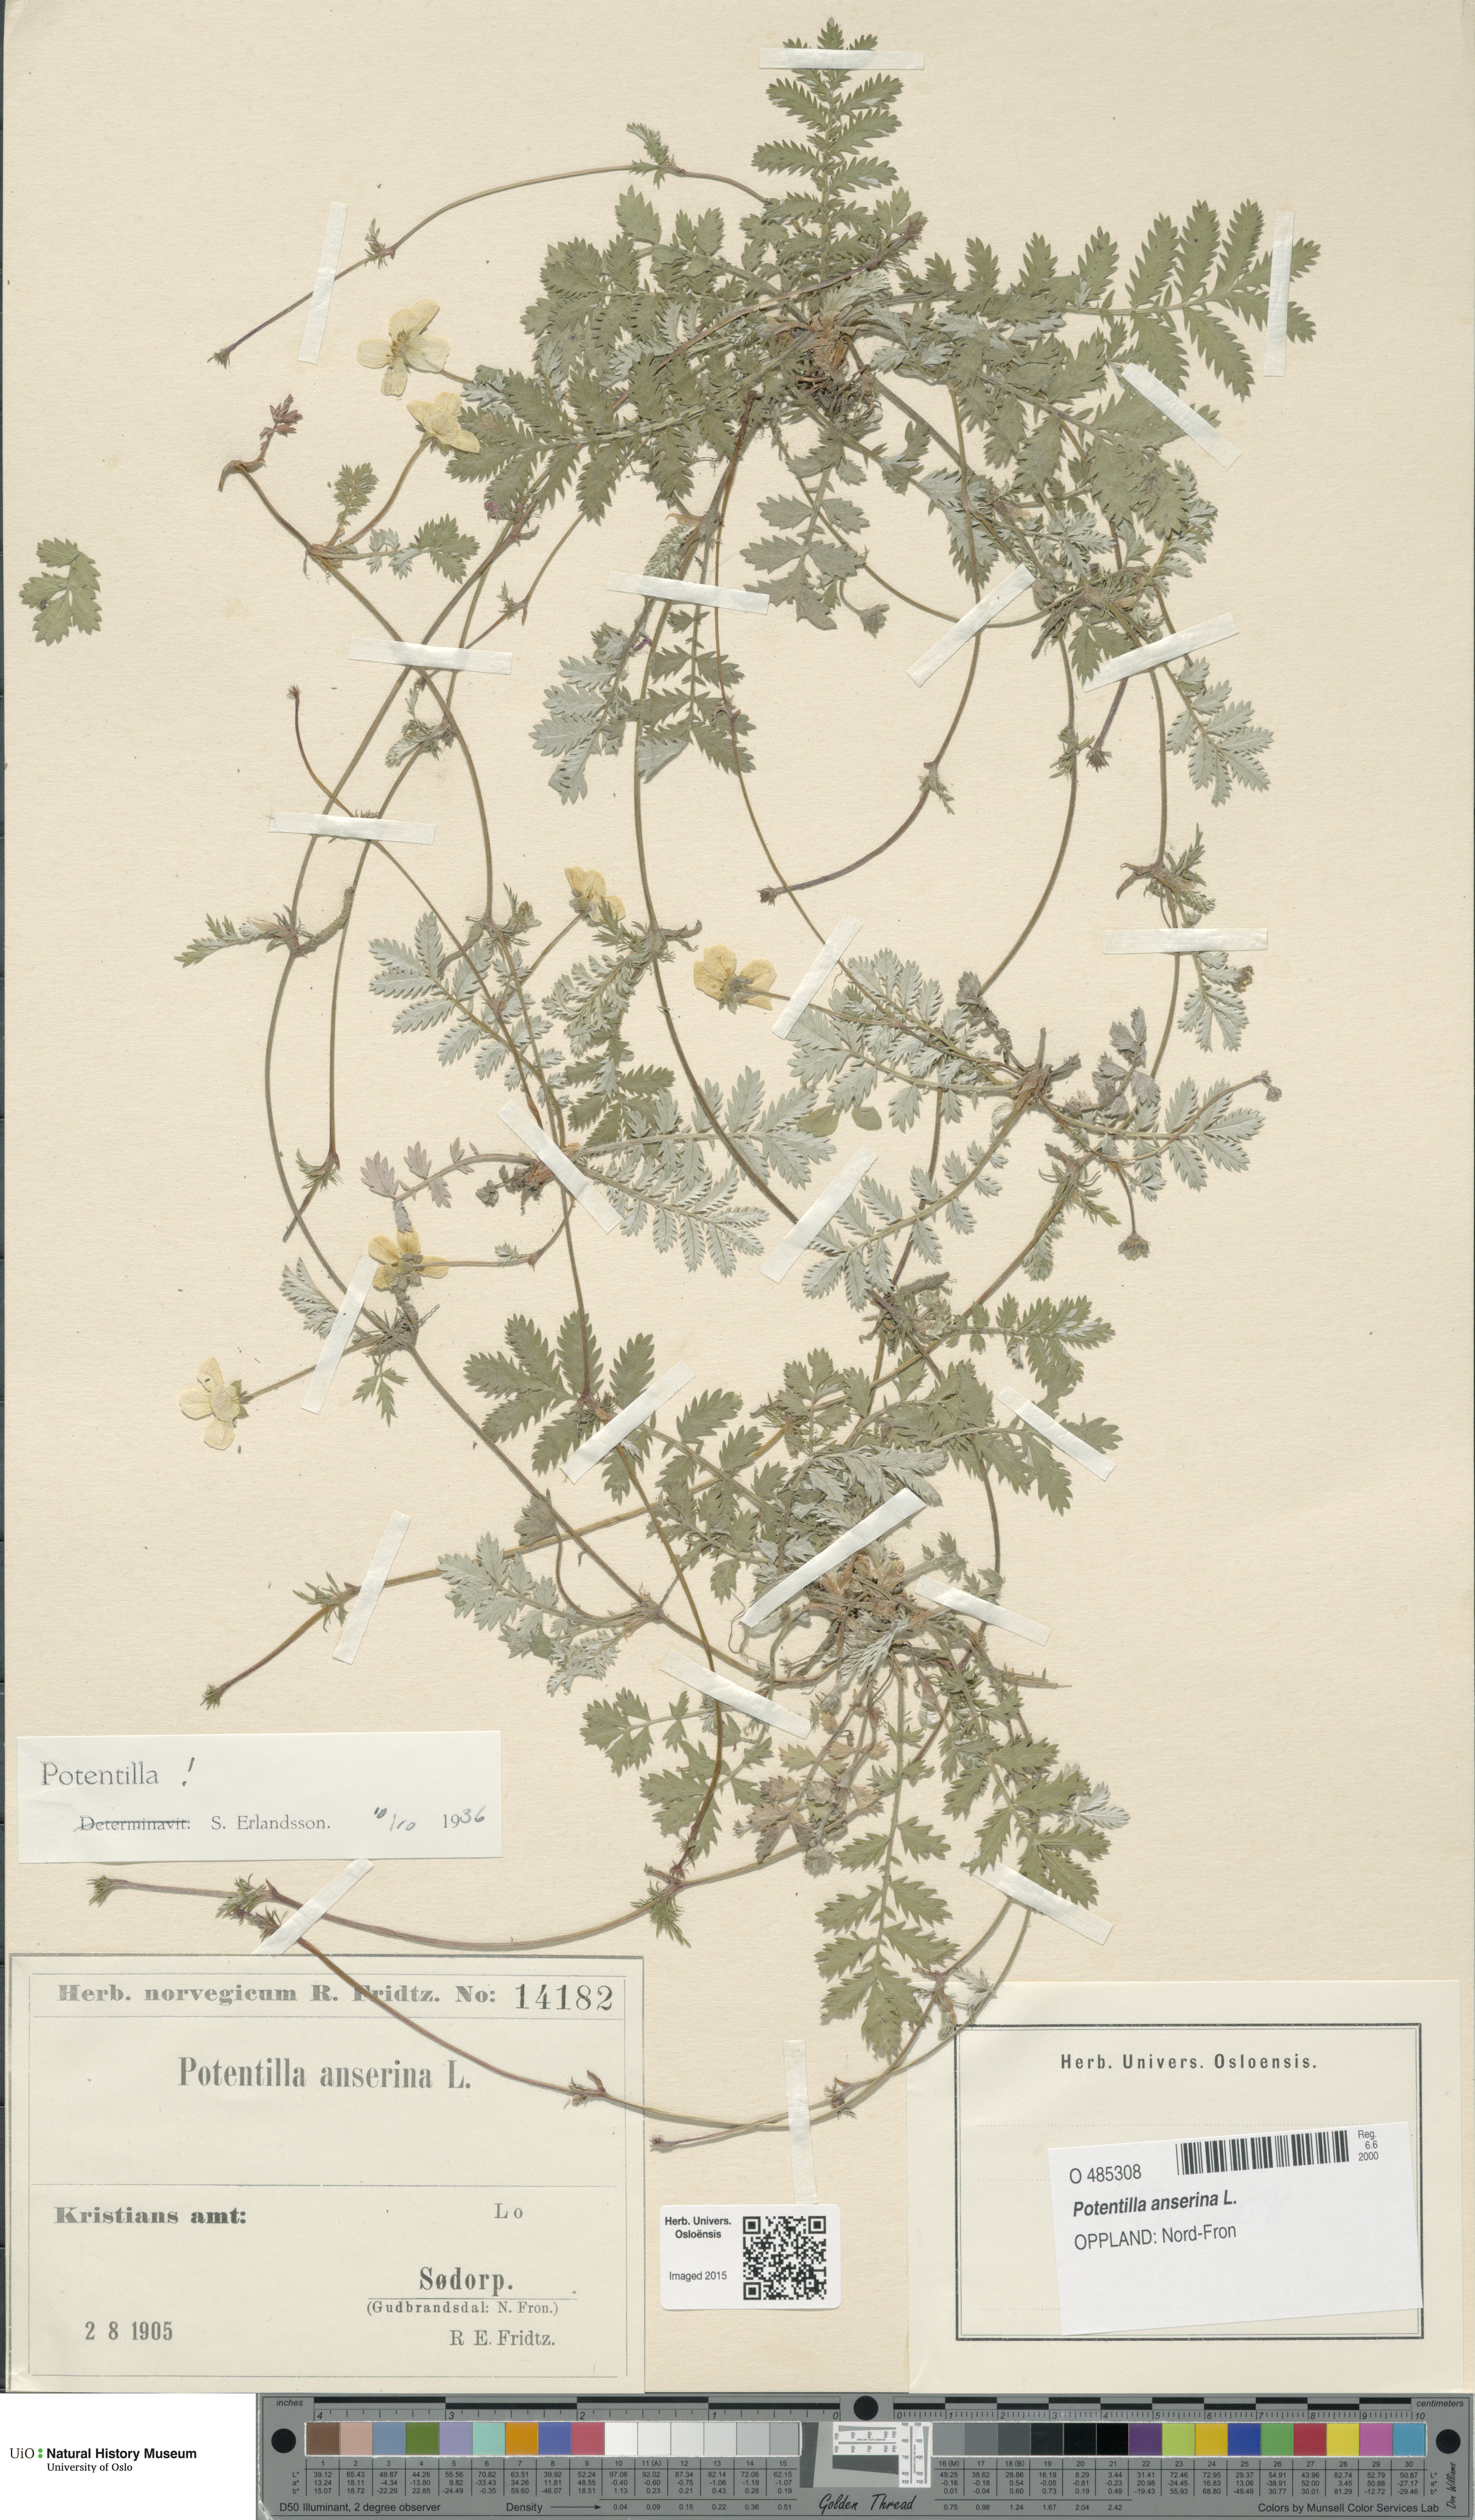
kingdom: Plantae
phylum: Tracheophyta
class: Magnoliopsida
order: Rosales
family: Rosaceae
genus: Argentina
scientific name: Argentina anserina
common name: Common silverweed
